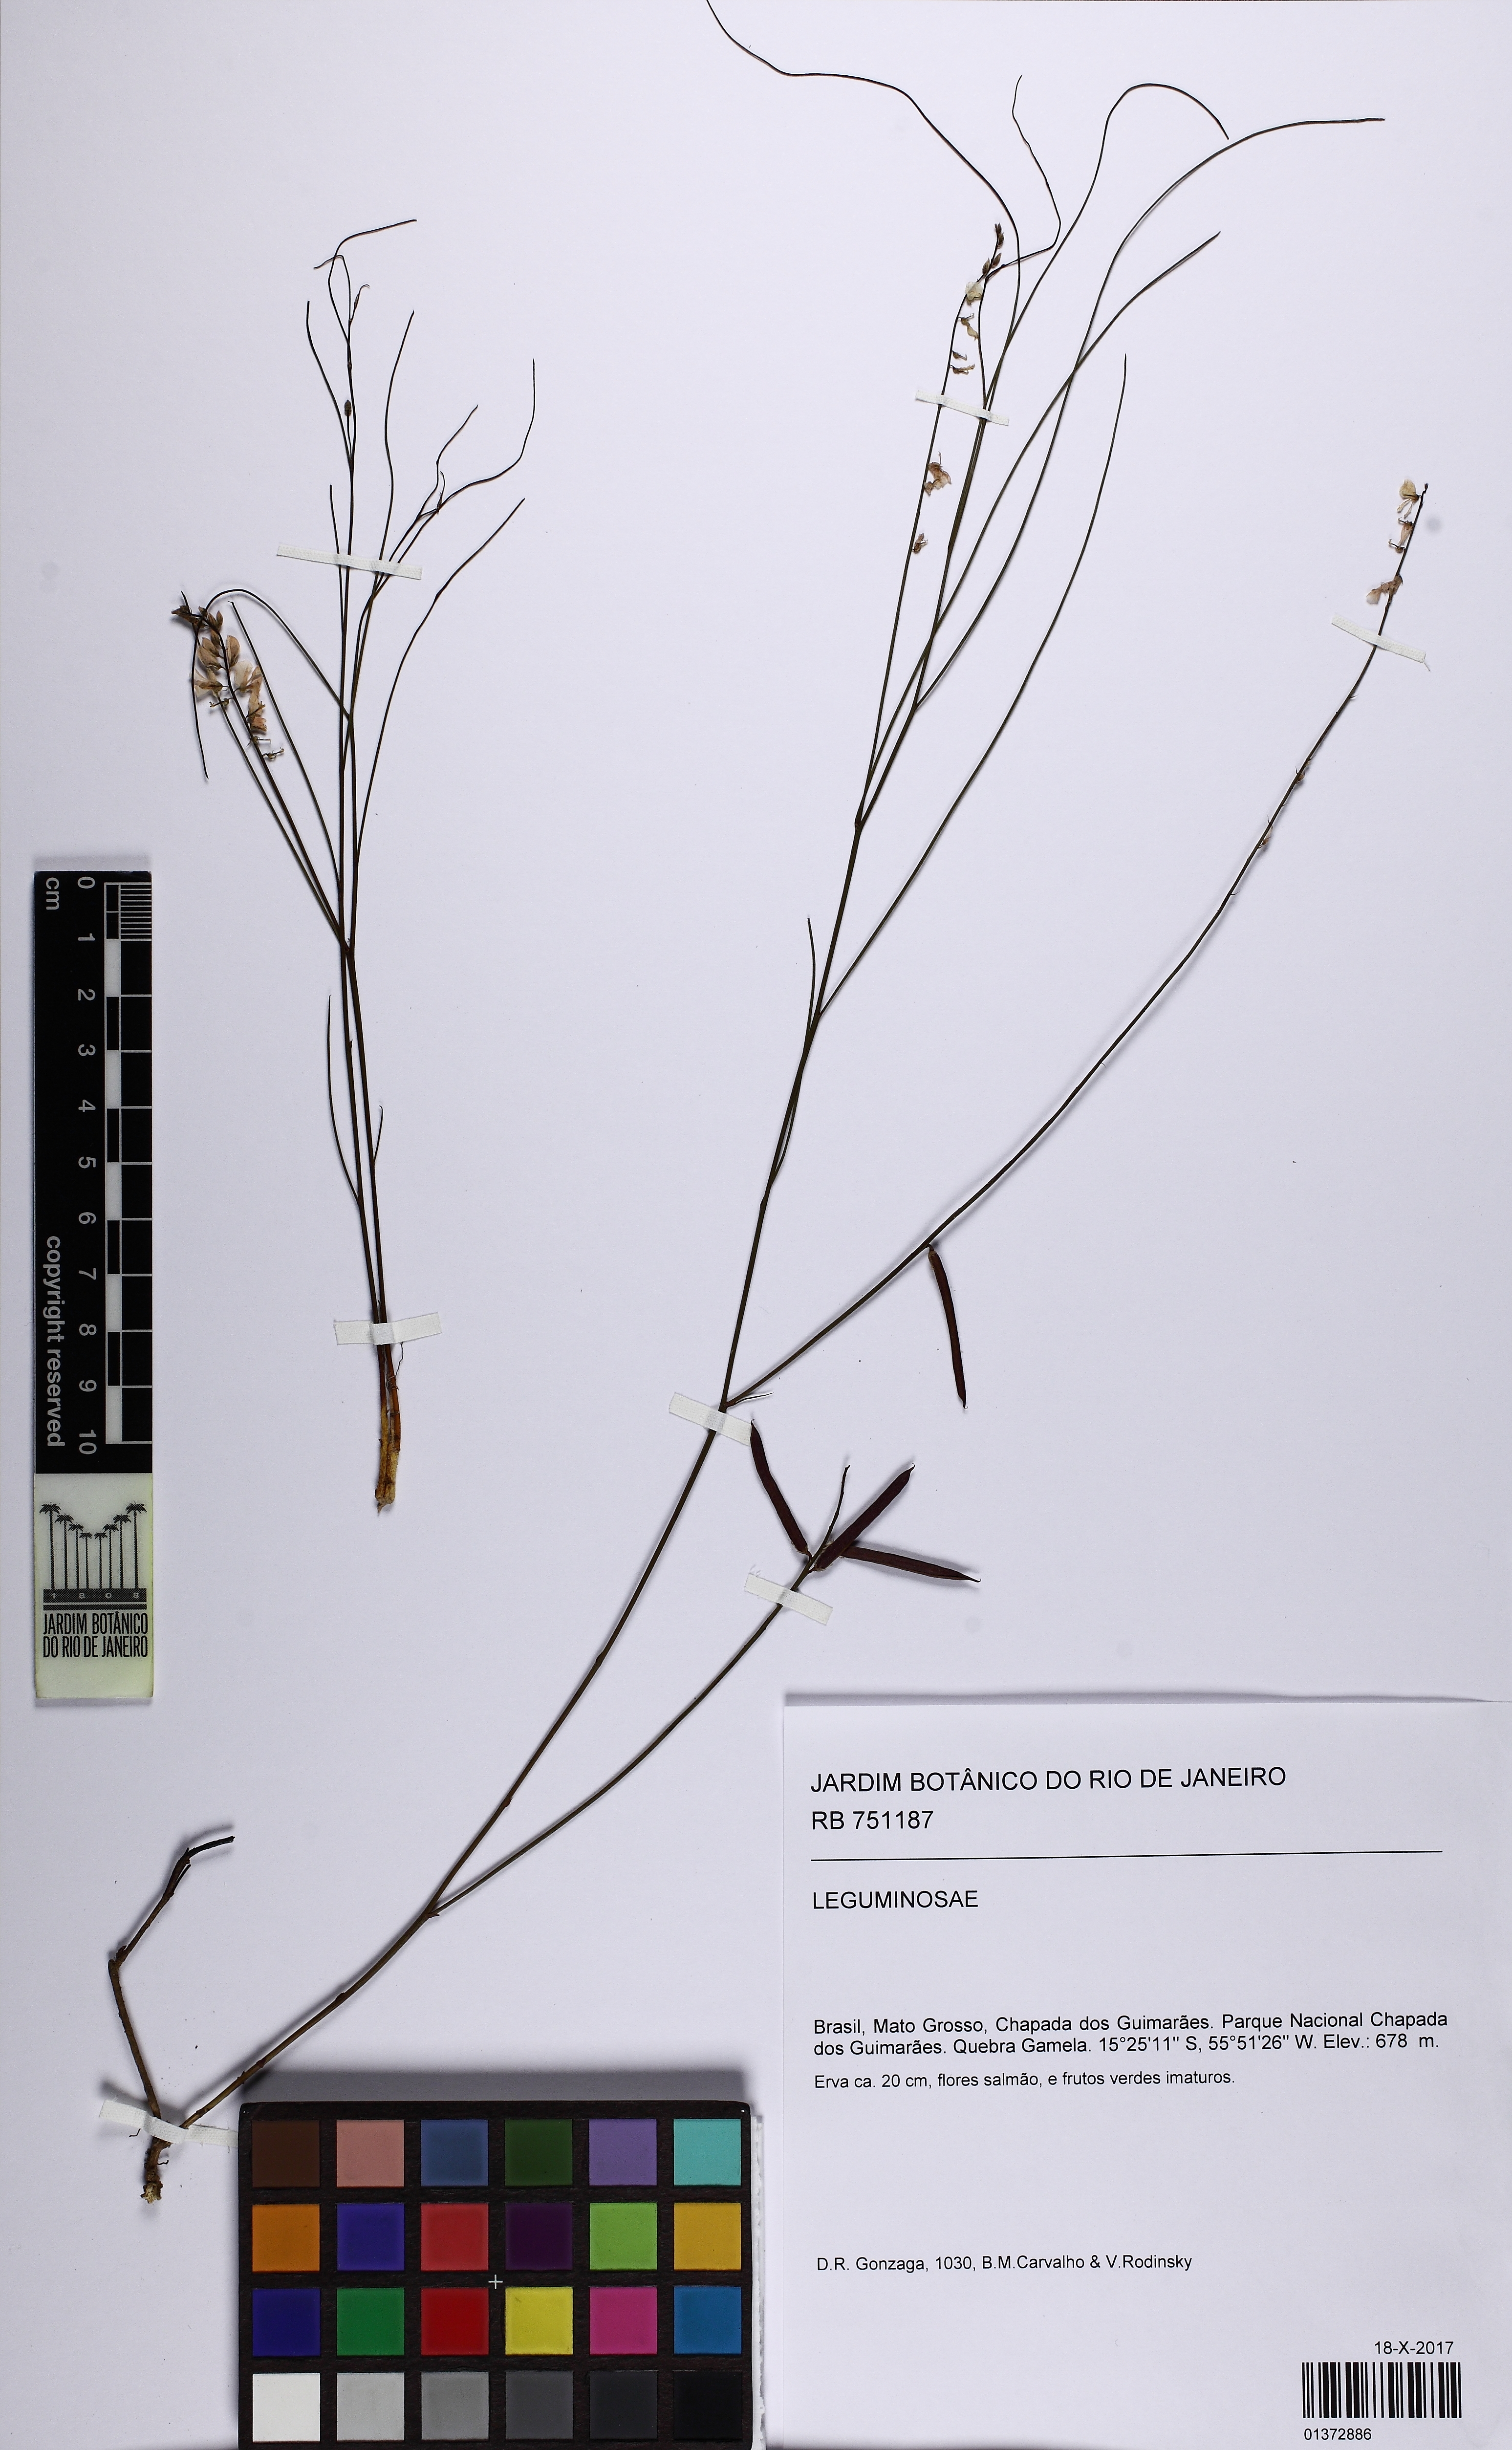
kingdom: Plantae
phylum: Tracheophyta
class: Magnoliopsida
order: Fabales
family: Fabaceae
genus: Indigofera
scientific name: Indigofera bongardiana
